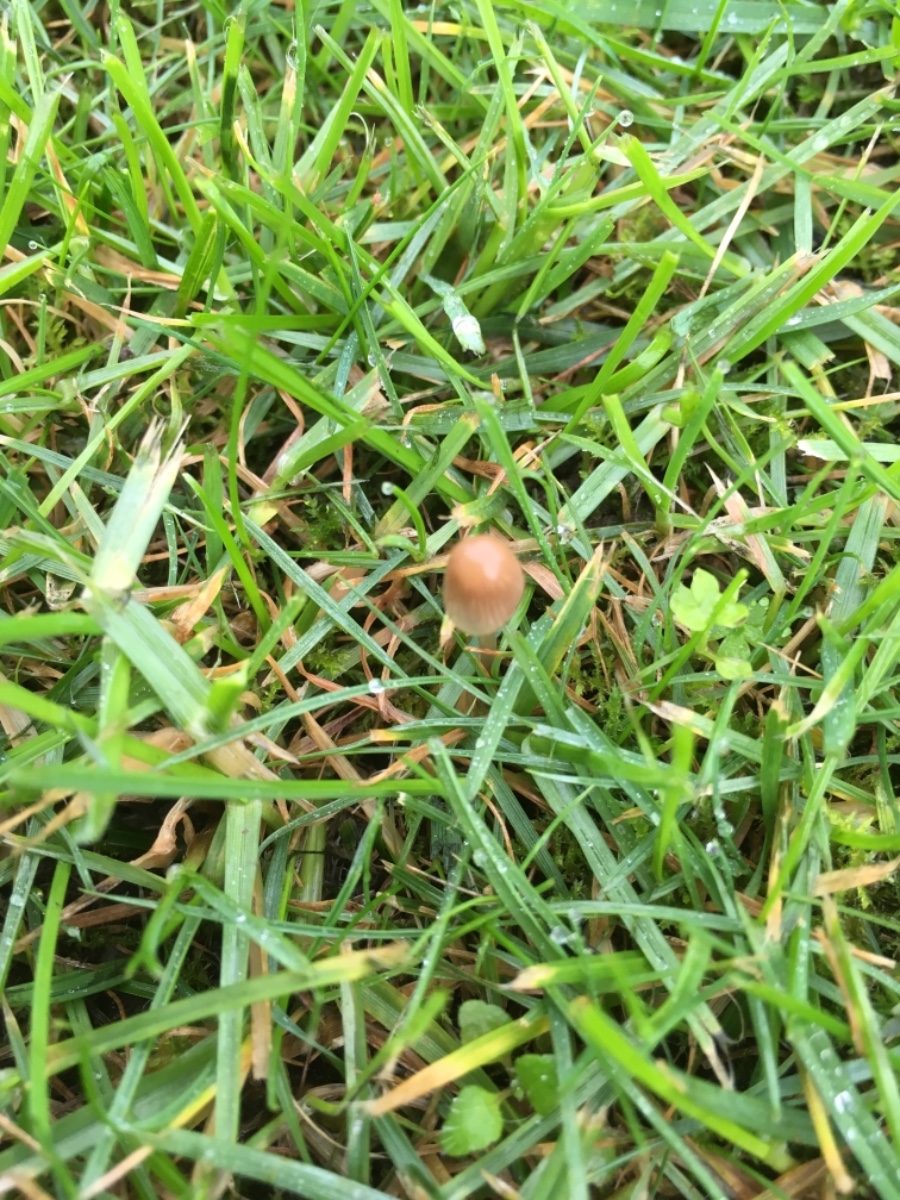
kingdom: Fungi
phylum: Basidiomycota
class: Agaricomycetes
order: Agaricales
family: Psathyrellaceae
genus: Parasola
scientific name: Parasola
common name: hjulhat
